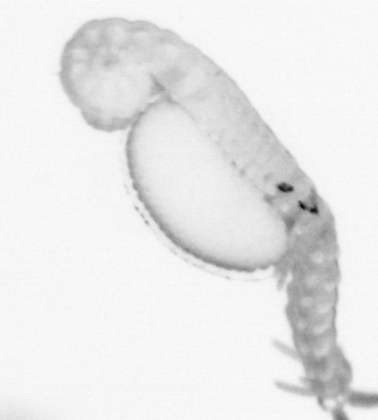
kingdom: Animalia
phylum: Annelida
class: Polychaeta
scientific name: Polychaeta
